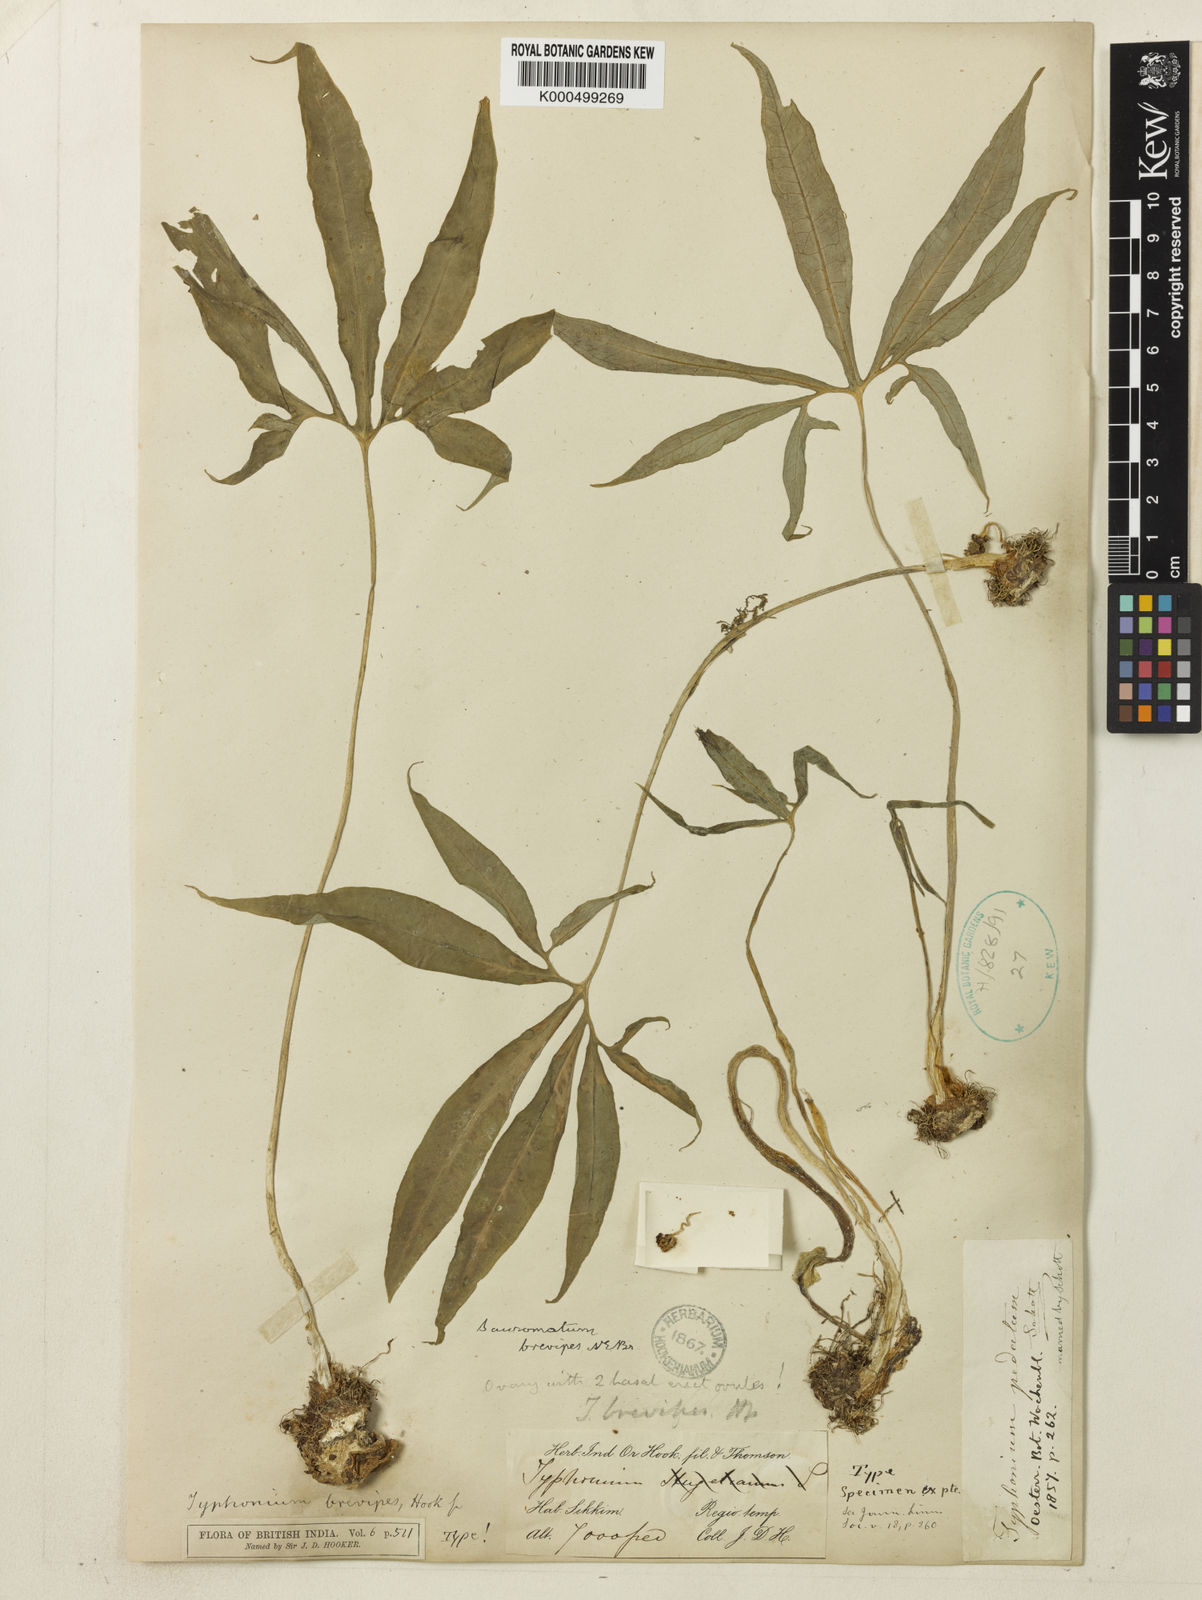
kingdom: Plantae
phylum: Tracheophyta
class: Liliopsida
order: Alismatales
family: Araceae
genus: Sauromatum
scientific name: Sauromatum brevipes
